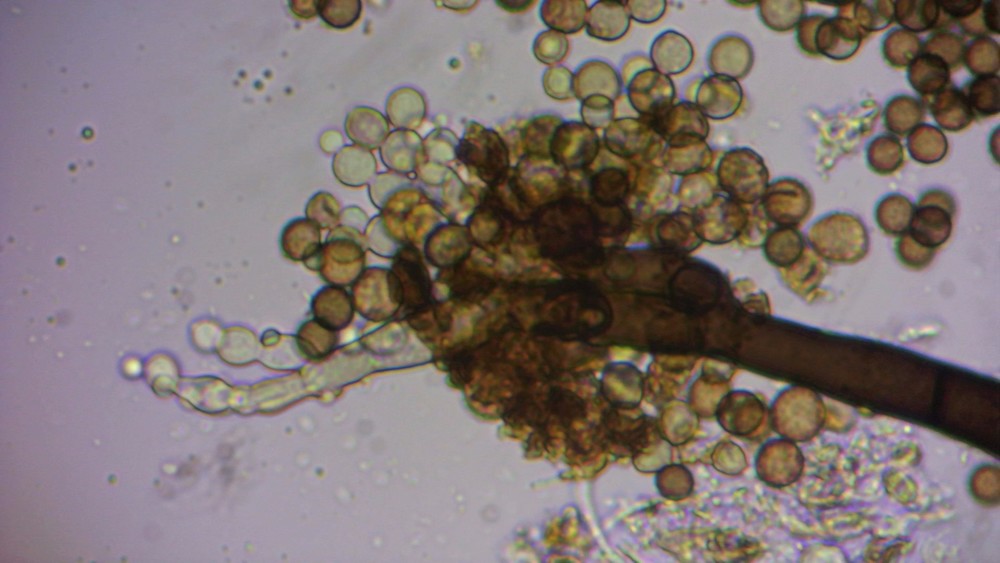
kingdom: Fungi
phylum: Ascomycota
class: Dothideomycetes
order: Pleosporales
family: Periconiaceae
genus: Periconia
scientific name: Periconia minutissima
